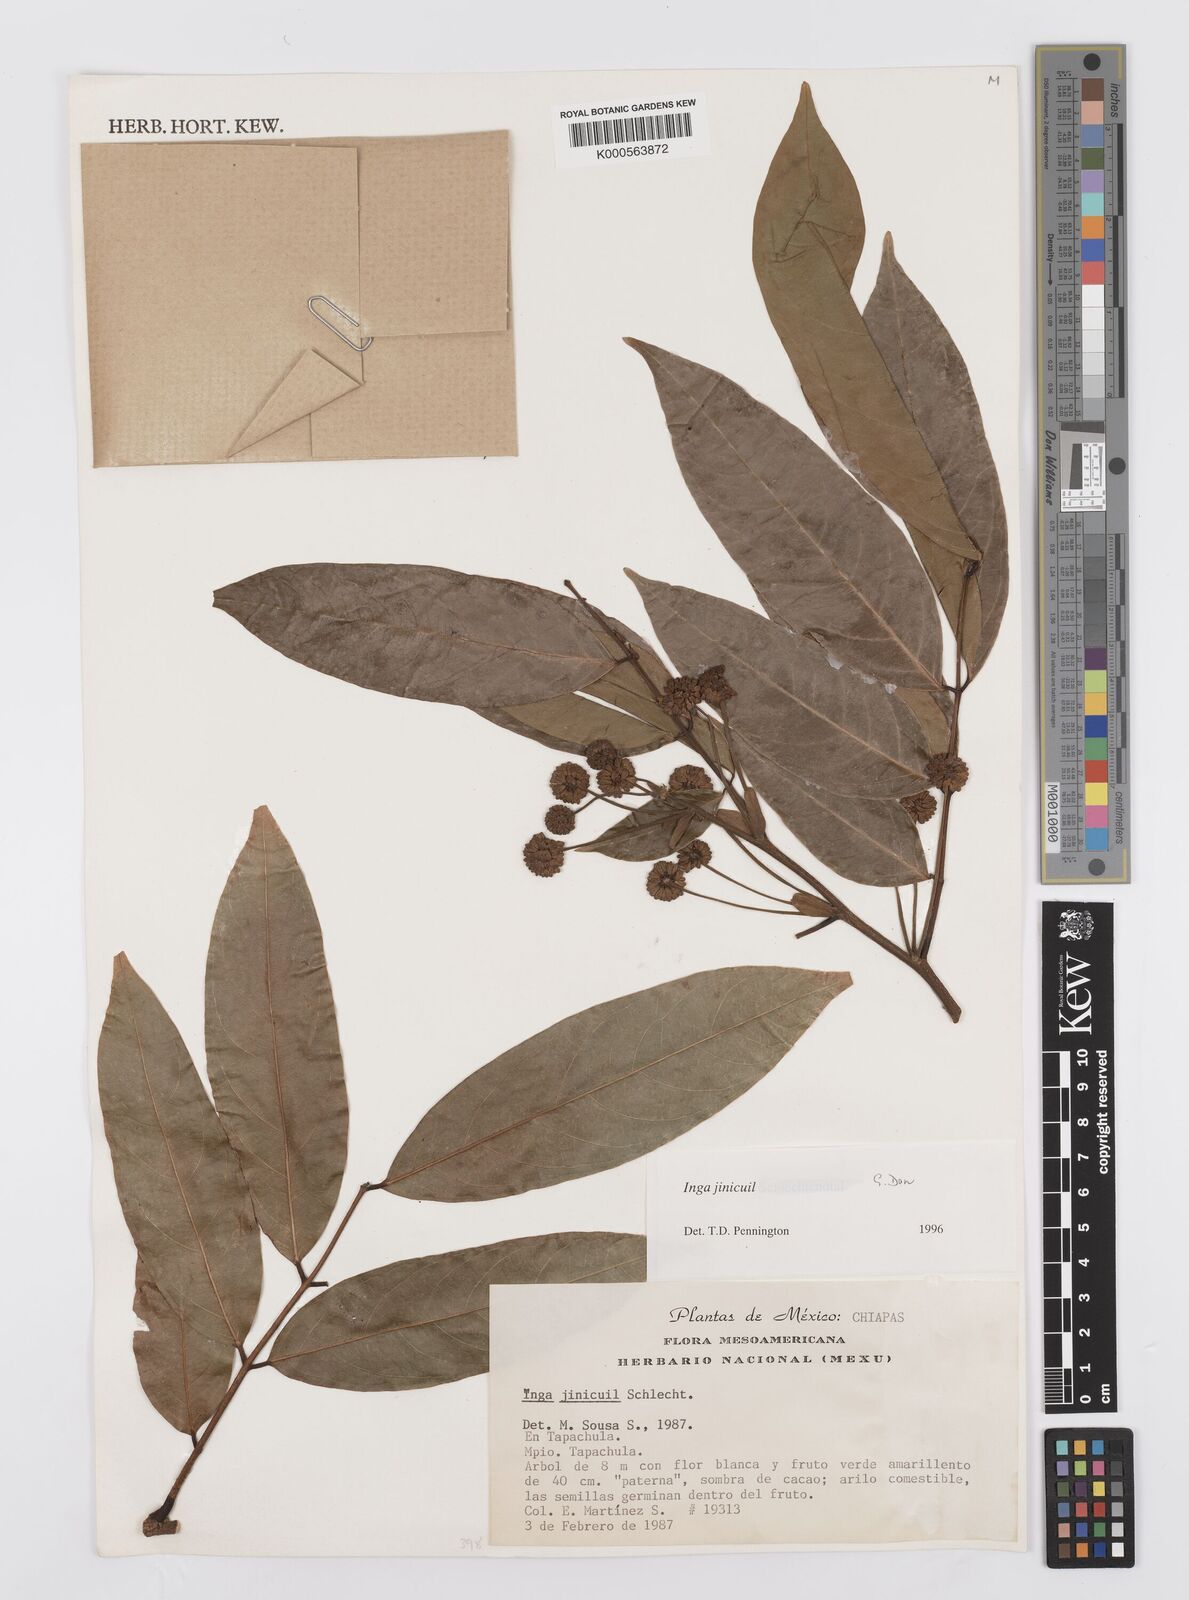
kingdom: Plantae
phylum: Tracheophyta
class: Magnoliopsida
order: Fabales
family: Fabaceae
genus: Inga
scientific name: Inga inicuil
